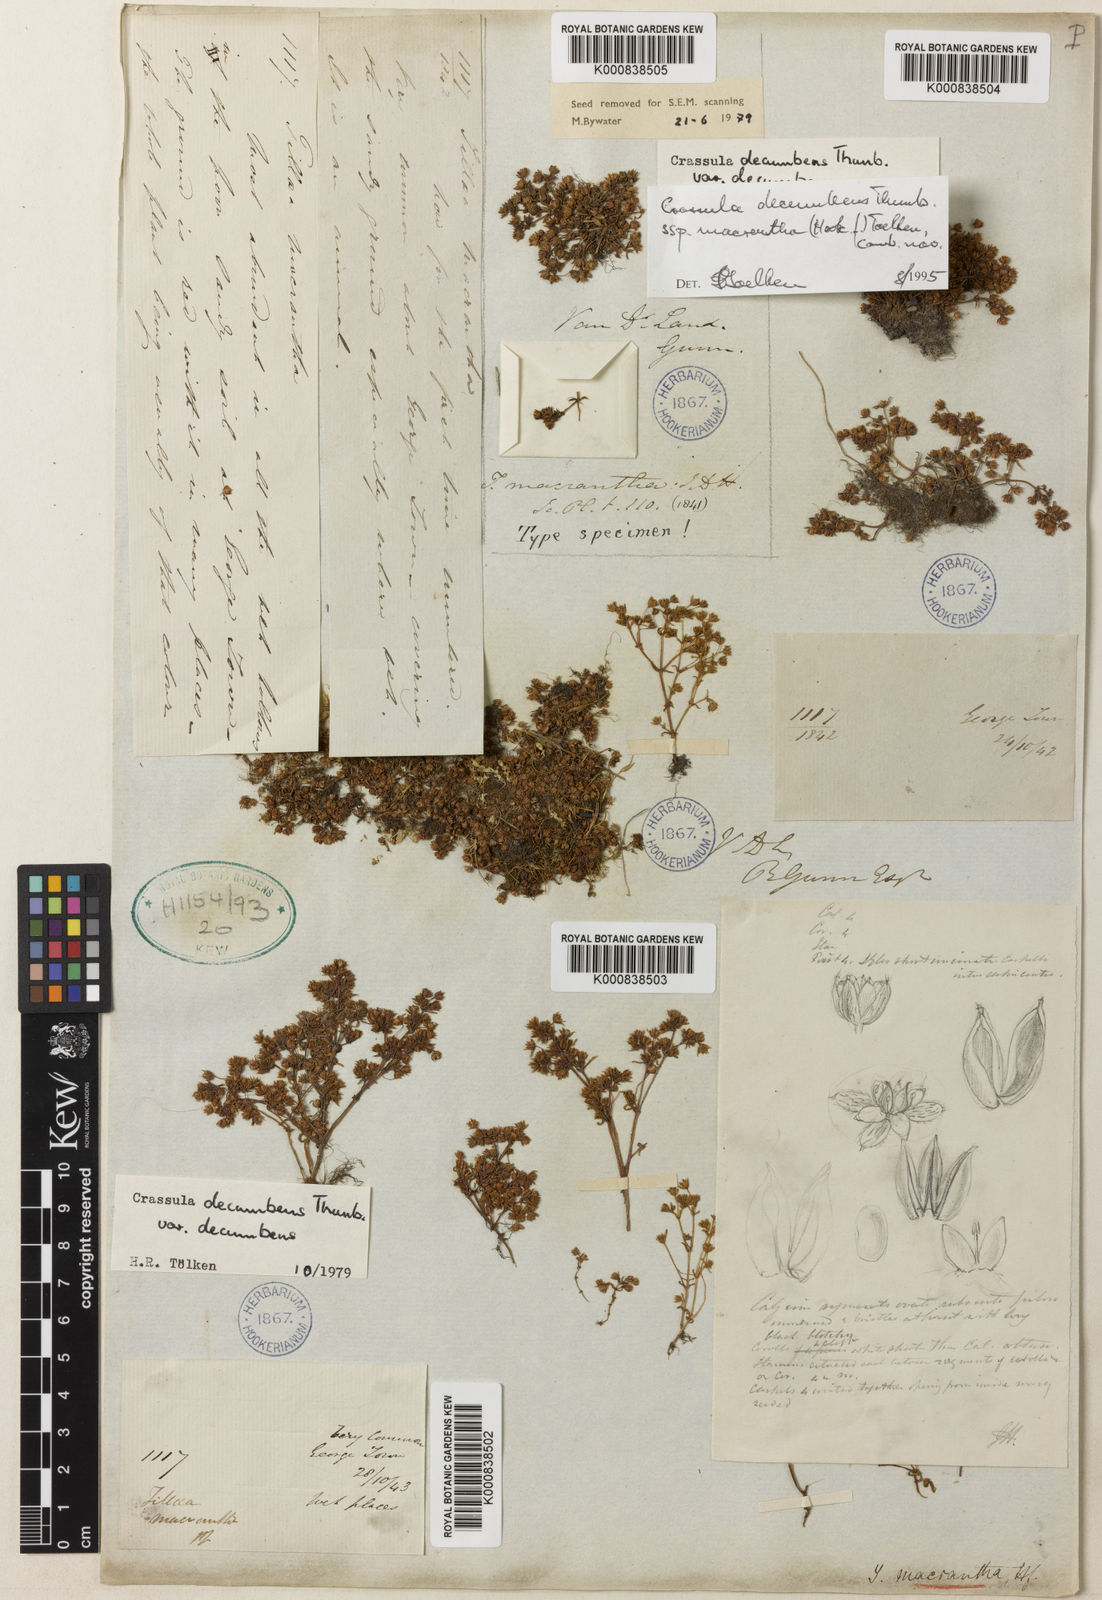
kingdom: Plantae
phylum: Tracheophyta
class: Magnoliopsida
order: Saxifragales
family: Crassulaceae
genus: Crassula
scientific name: Crassula decumbens
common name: Scilly pigmyweed
